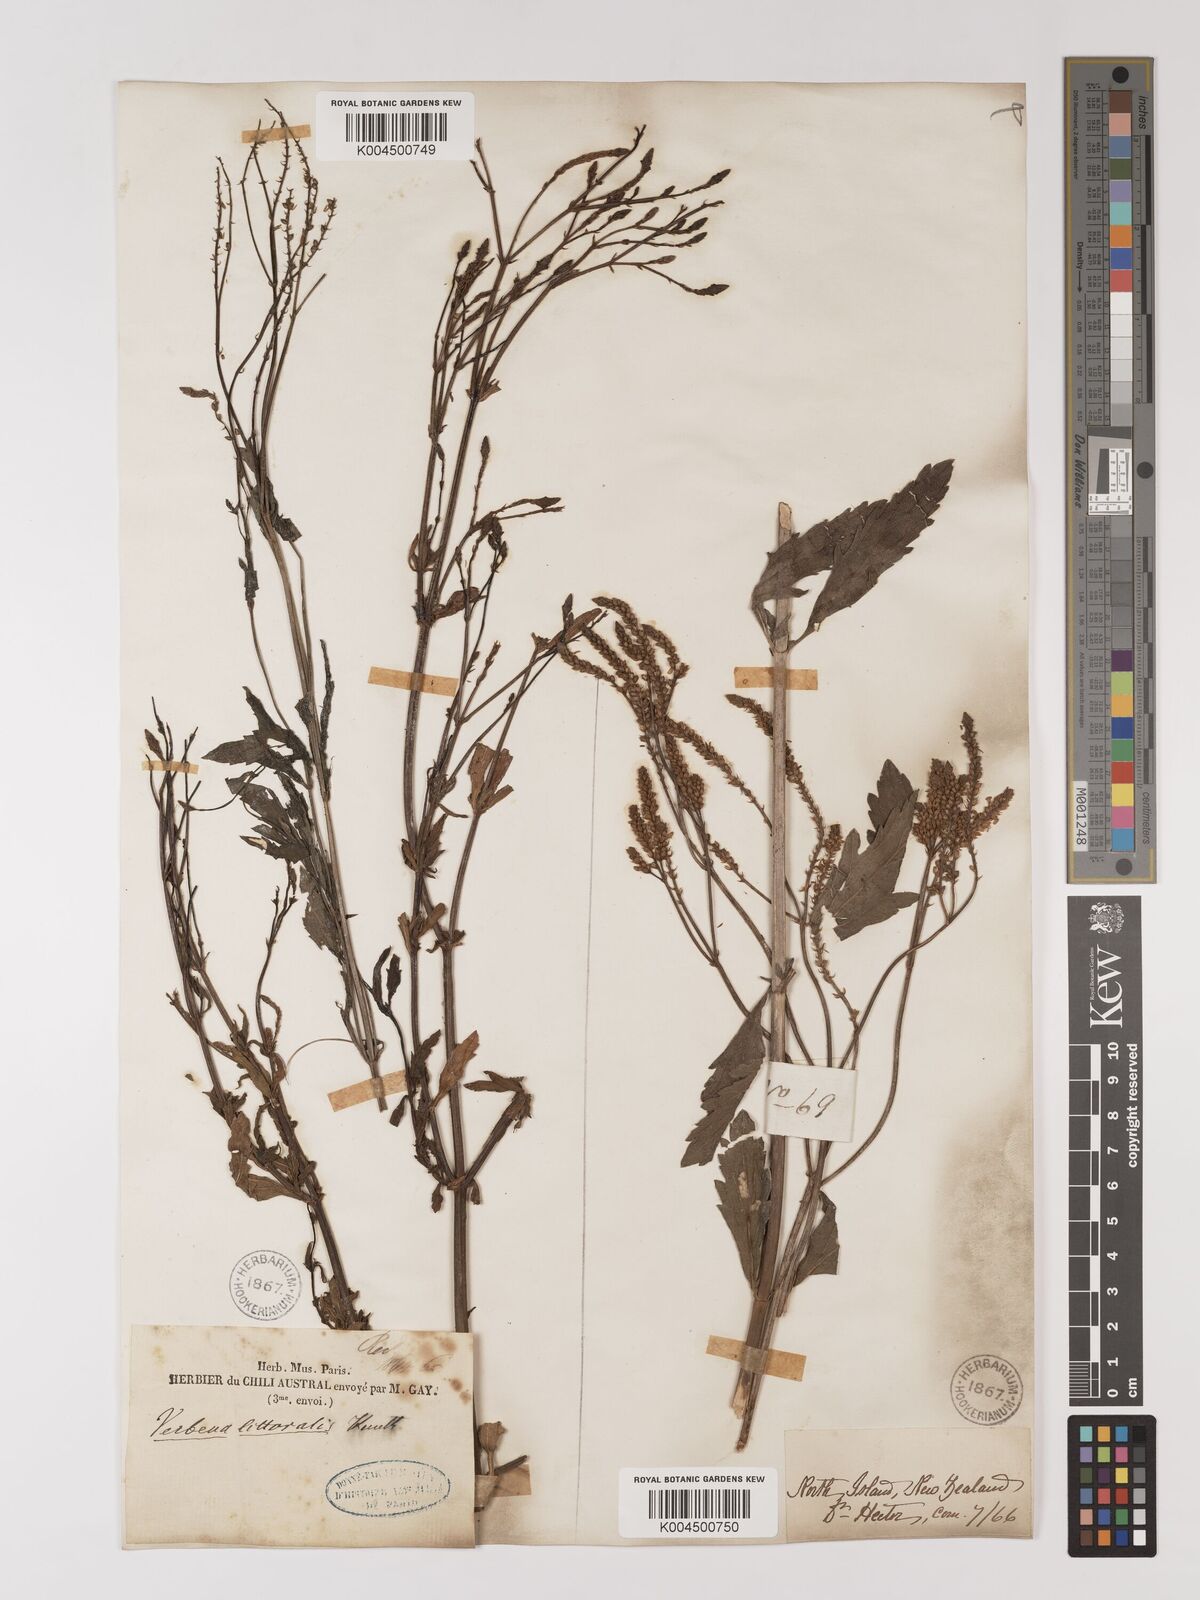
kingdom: Plantae
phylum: Tracheophyta
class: Magnoliopsida
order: Lamiales
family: Verbenaceae
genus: Verbena
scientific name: Verbena litoralis
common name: Seashore vervain
